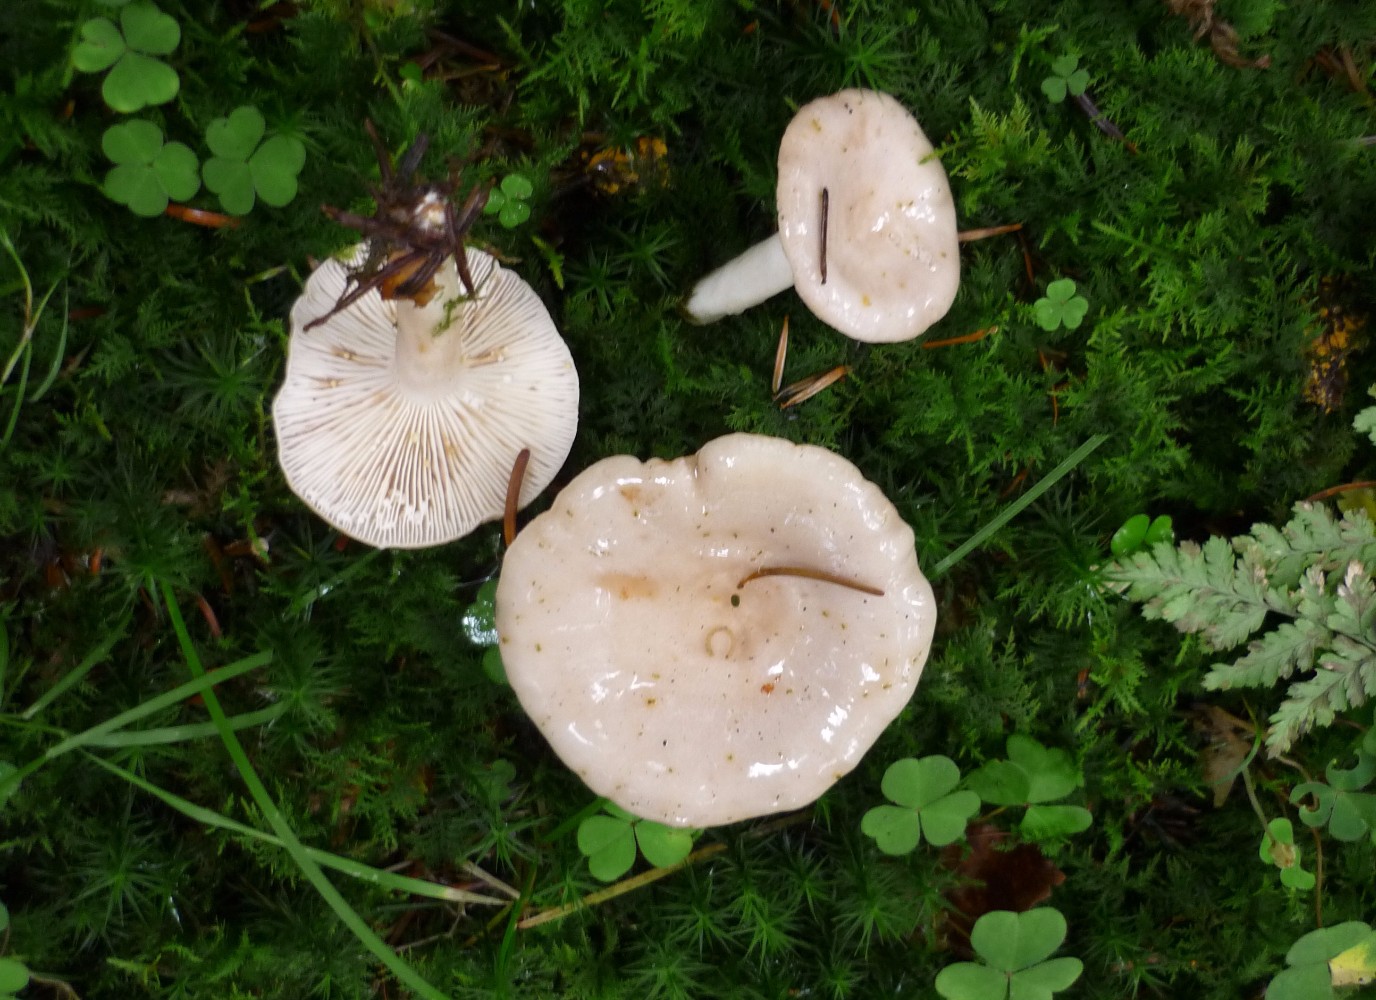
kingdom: Fungi
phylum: Basidiomycota
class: Agaricomycetes
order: Russulales
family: Russulaceae
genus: Lactarius
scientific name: Lactarius albocarneus
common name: ædelgran-mælkehat
